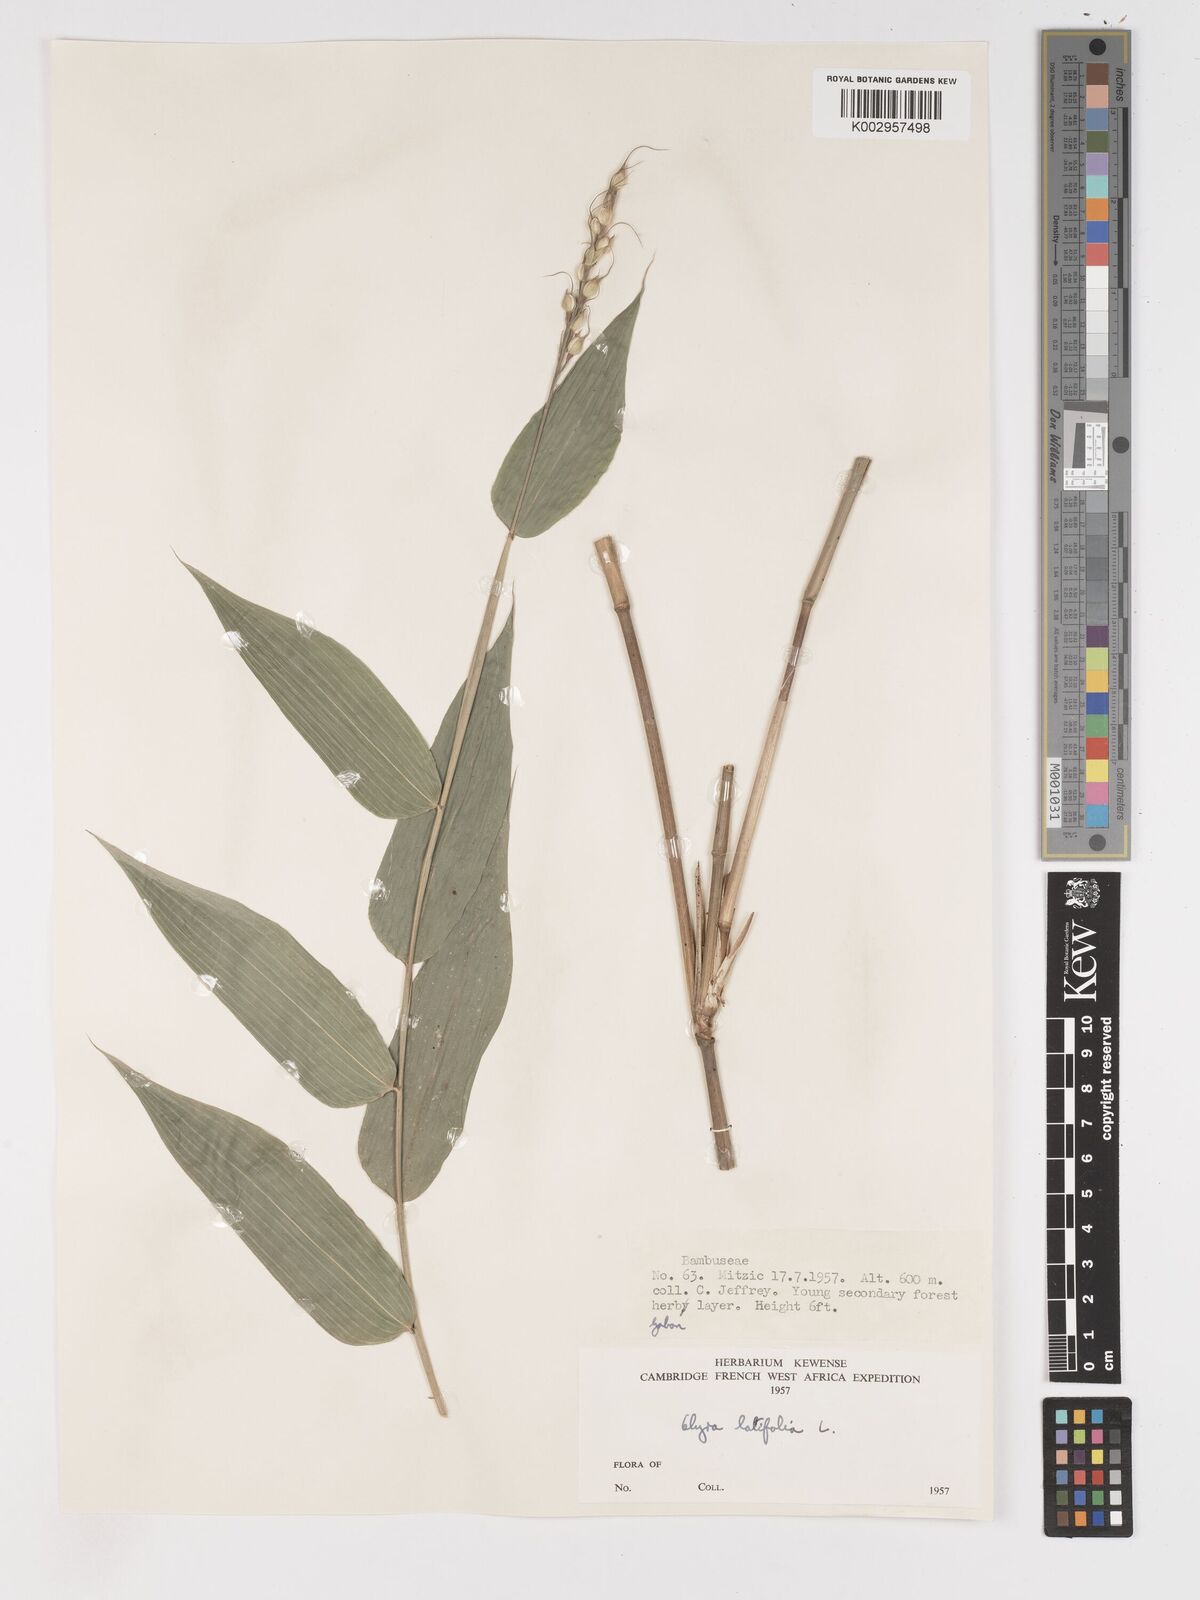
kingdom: Plantae
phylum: Tracheophyta
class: Liliopsida
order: Poales
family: Poaceae
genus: Olyra
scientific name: Olyra latifolia
